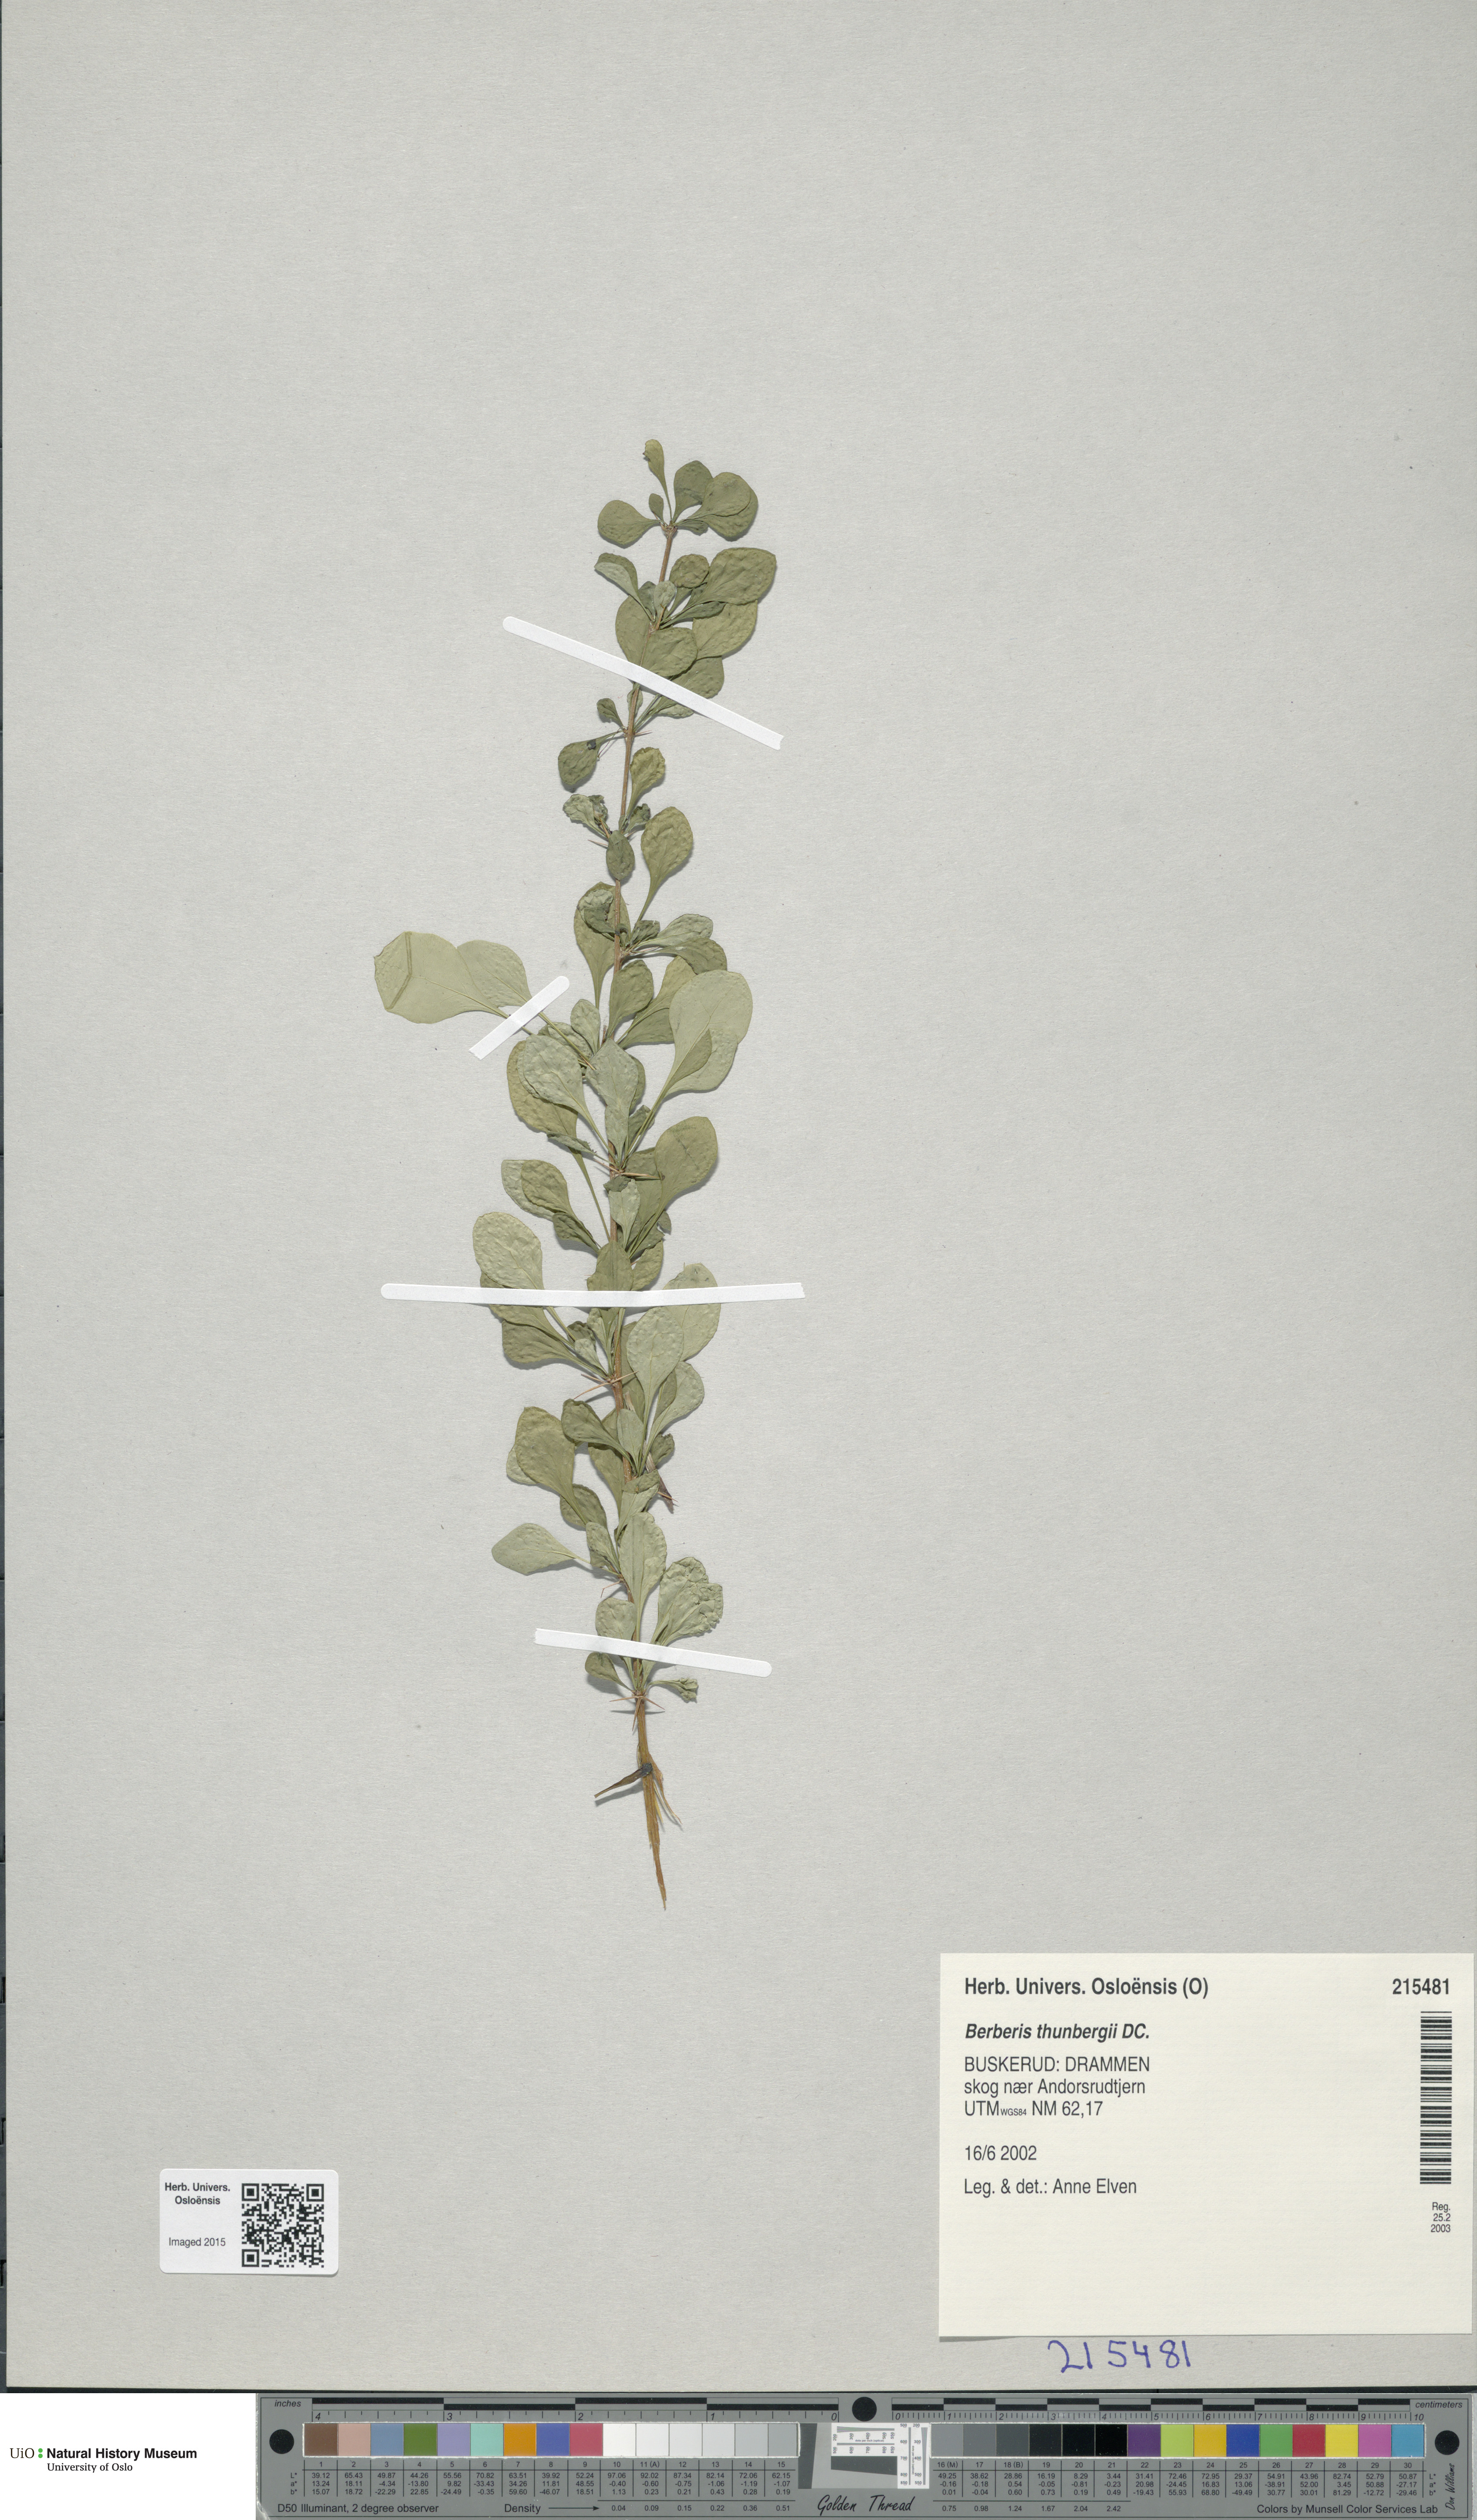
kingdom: Plantae
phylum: Tracheophyta
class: Magnoliopsida
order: Ranunculales
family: Berberidaceae
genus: Berberis
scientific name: Berberis thunbergii
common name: Japanese barberry
